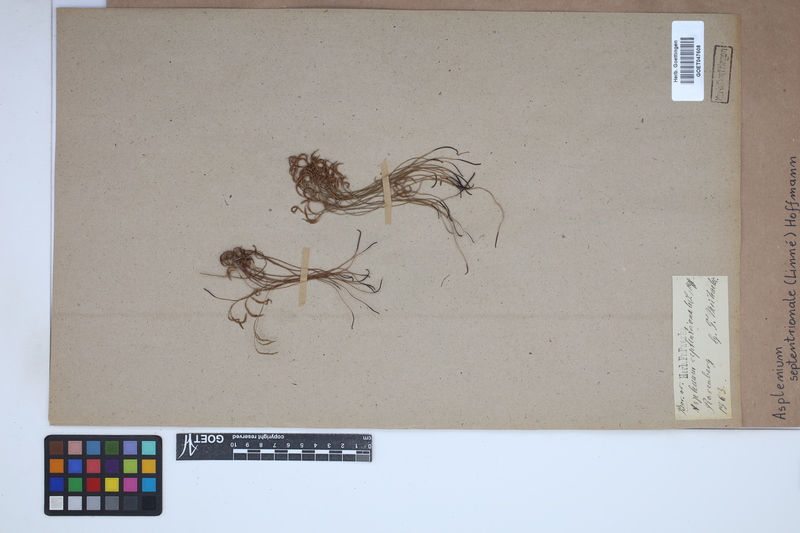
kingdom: Plantae
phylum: Tracheophyta
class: Polypodiopsida
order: Polypodiales
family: Aspleniaceae
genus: Asplenium
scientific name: Asplenium septentrionale
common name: Forked spleenwort
